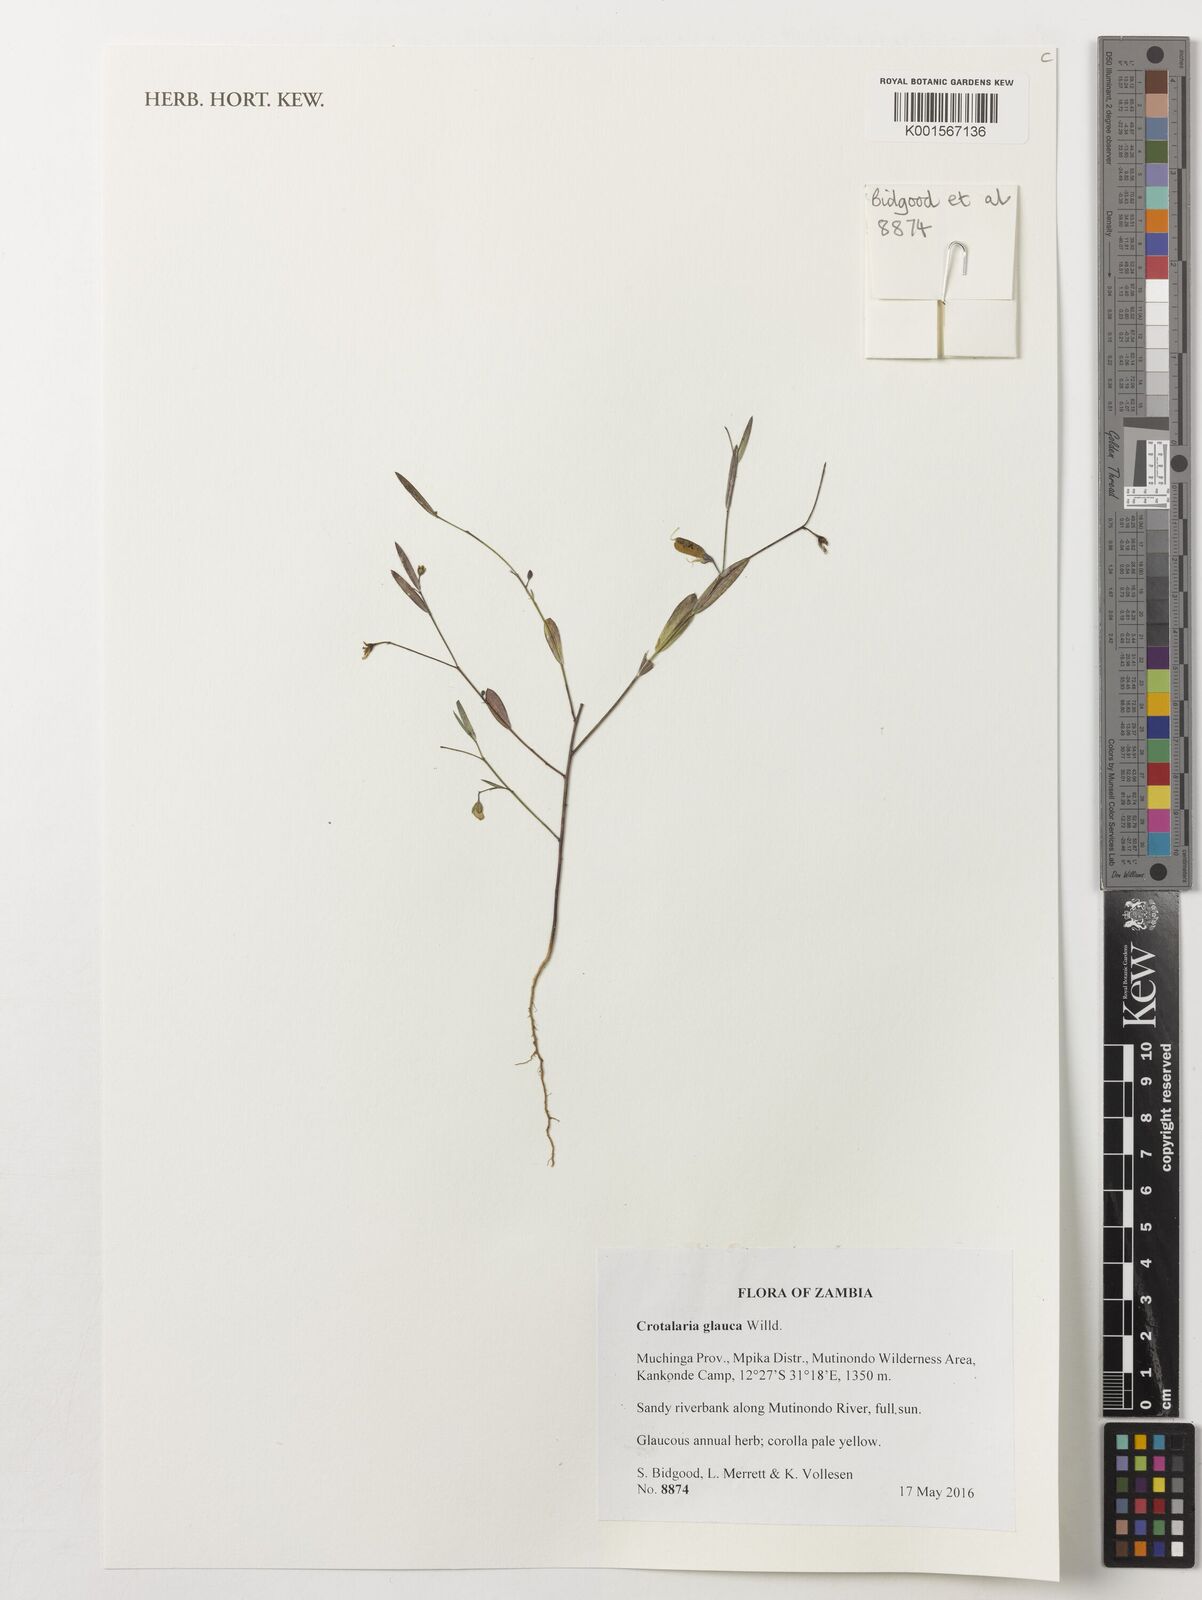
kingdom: Plantae
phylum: Tracheophyta
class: Magnoliopsida
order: Fabales
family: Fabaceae
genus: Crotalaria
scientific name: Crotalaria glauca
